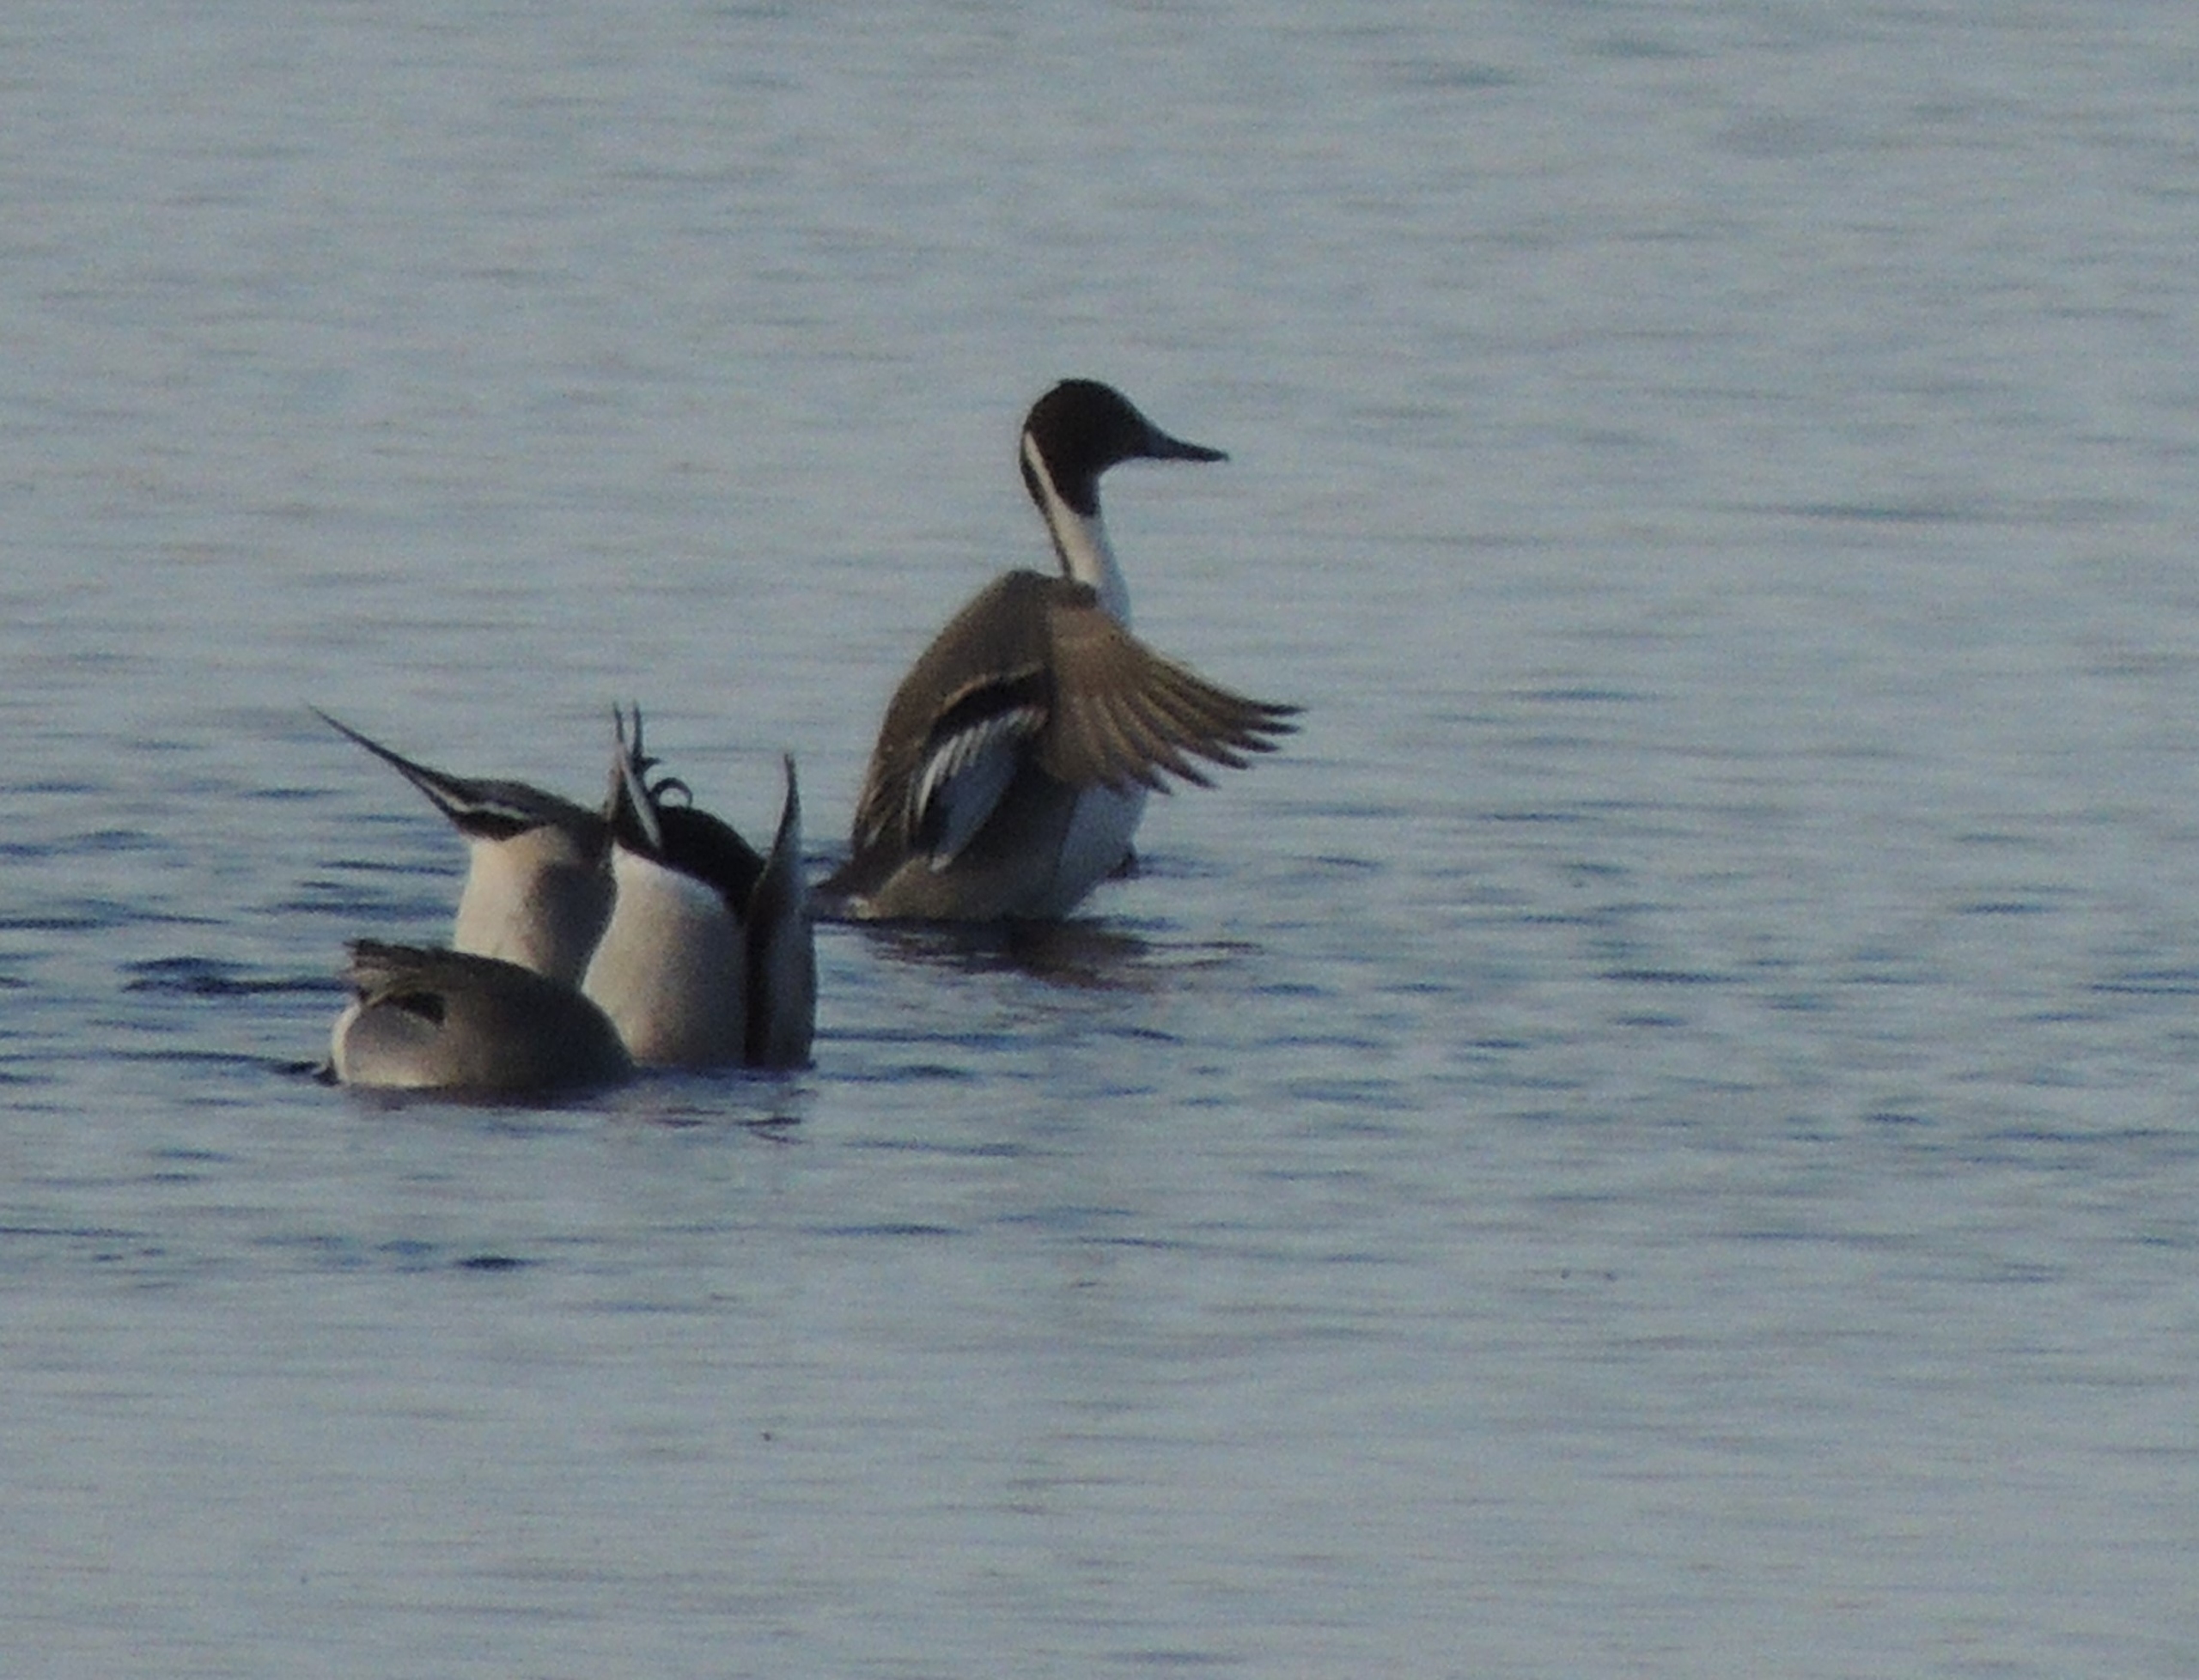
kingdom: Animalia
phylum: Chordata
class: Aves
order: Anseriformes
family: Anatidae
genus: Anas
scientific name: Anas acuta
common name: Spidsand
